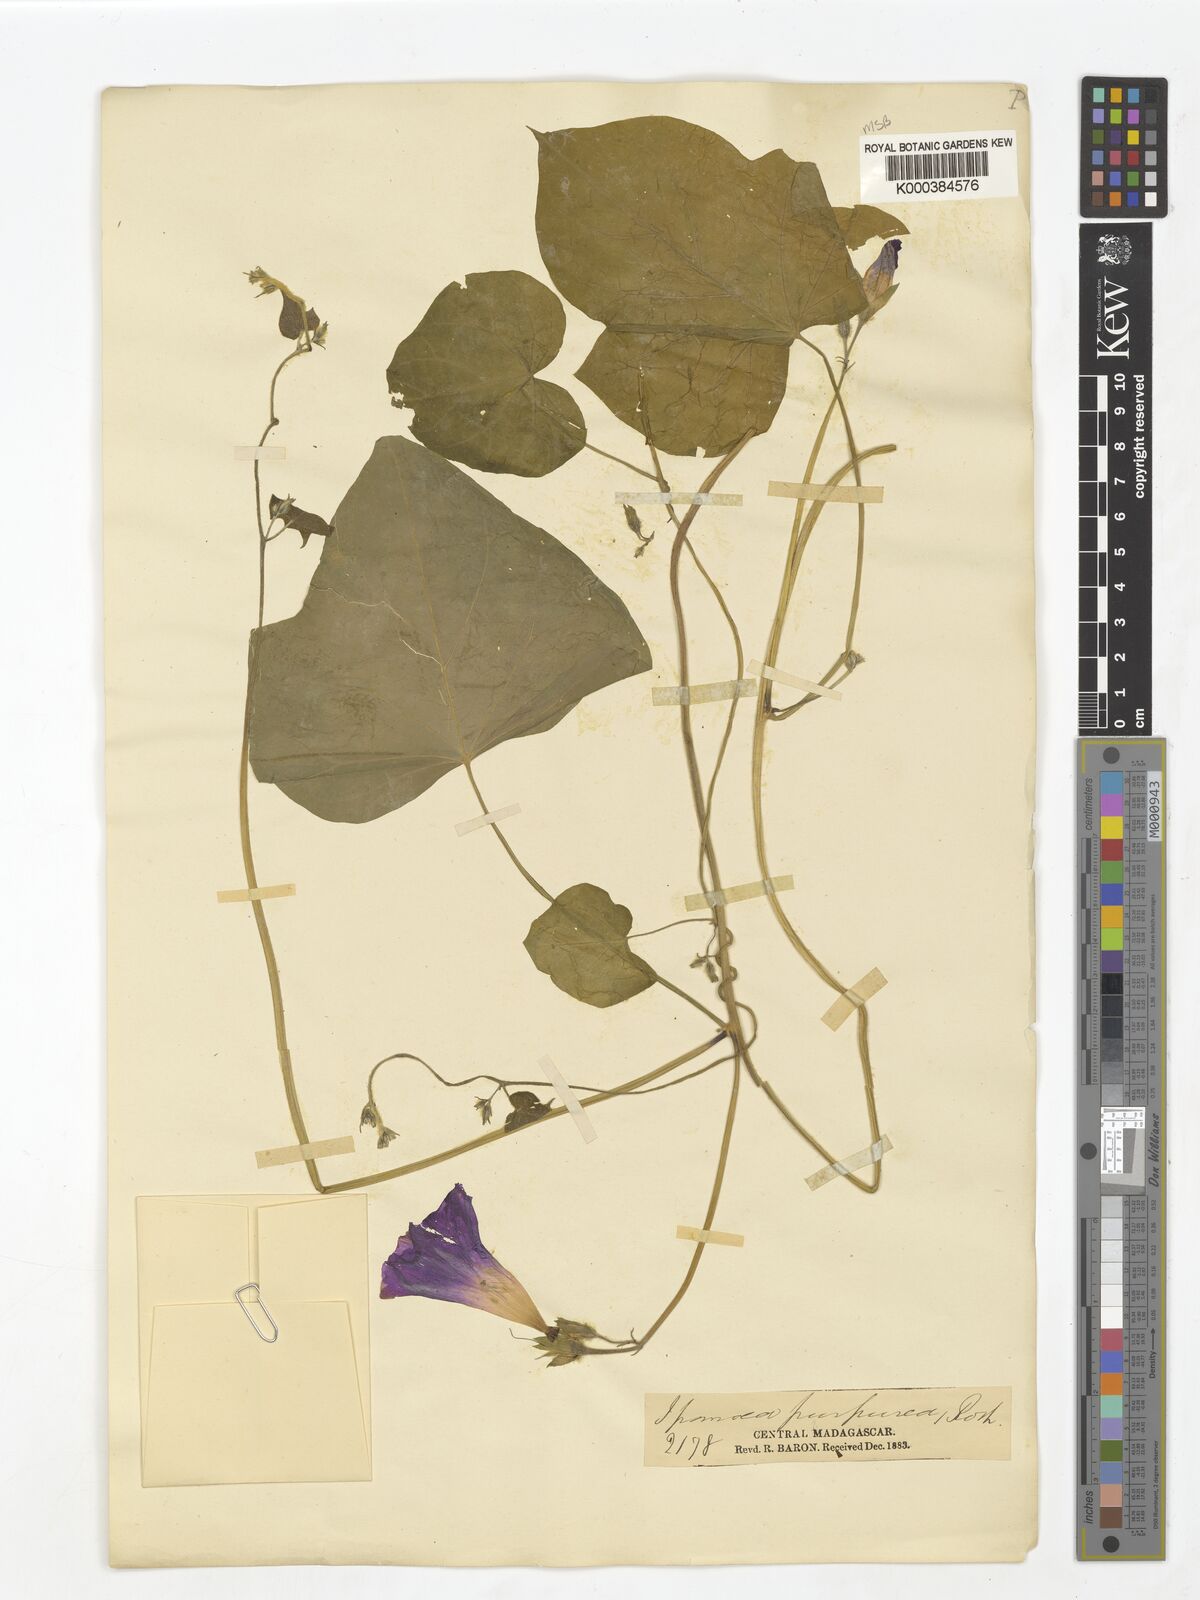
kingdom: Plantae
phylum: Tracheophyta
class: Magnoliopsida
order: Solanales
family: Convolvulaceae
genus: Ipomoea
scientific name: Ipomoea purpurea
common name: Common morning-glory
